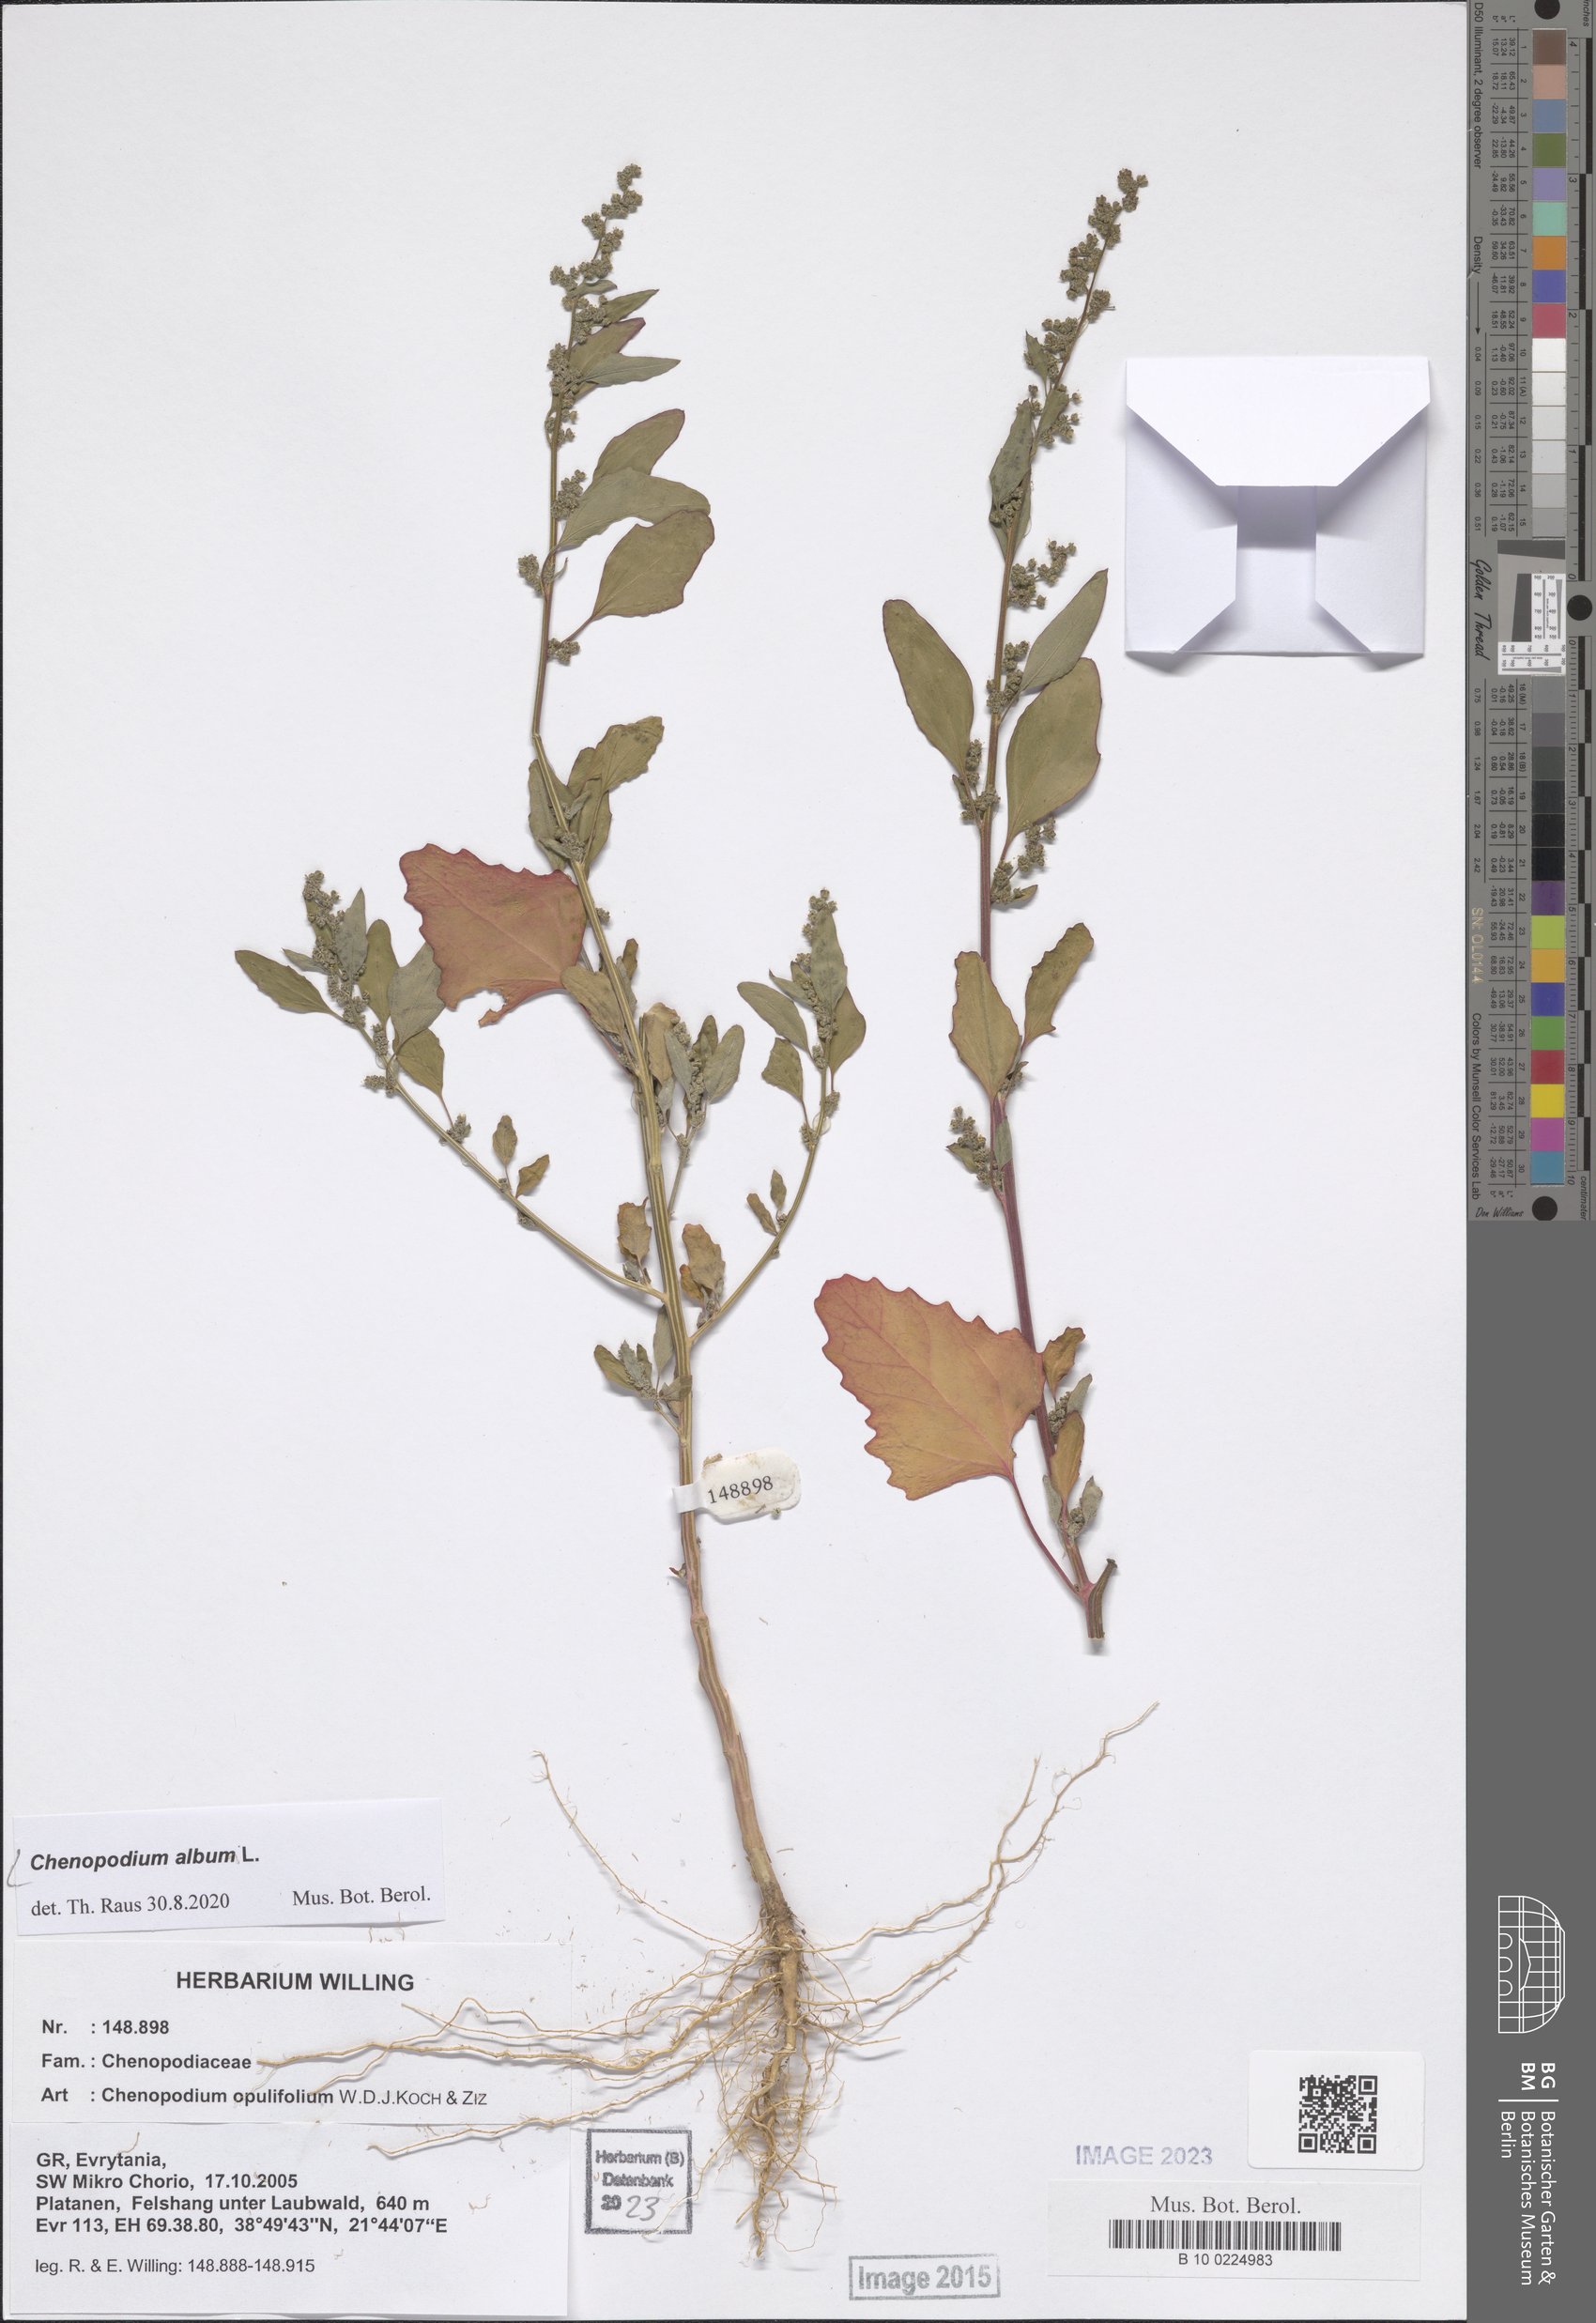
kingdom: Plantae
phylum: Tracheophyta
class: Magnoliopsida
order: Caryophyllales
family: Amaranthaceae
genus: Chenopodium
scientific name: Chenopodium album
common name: Fat-hen
